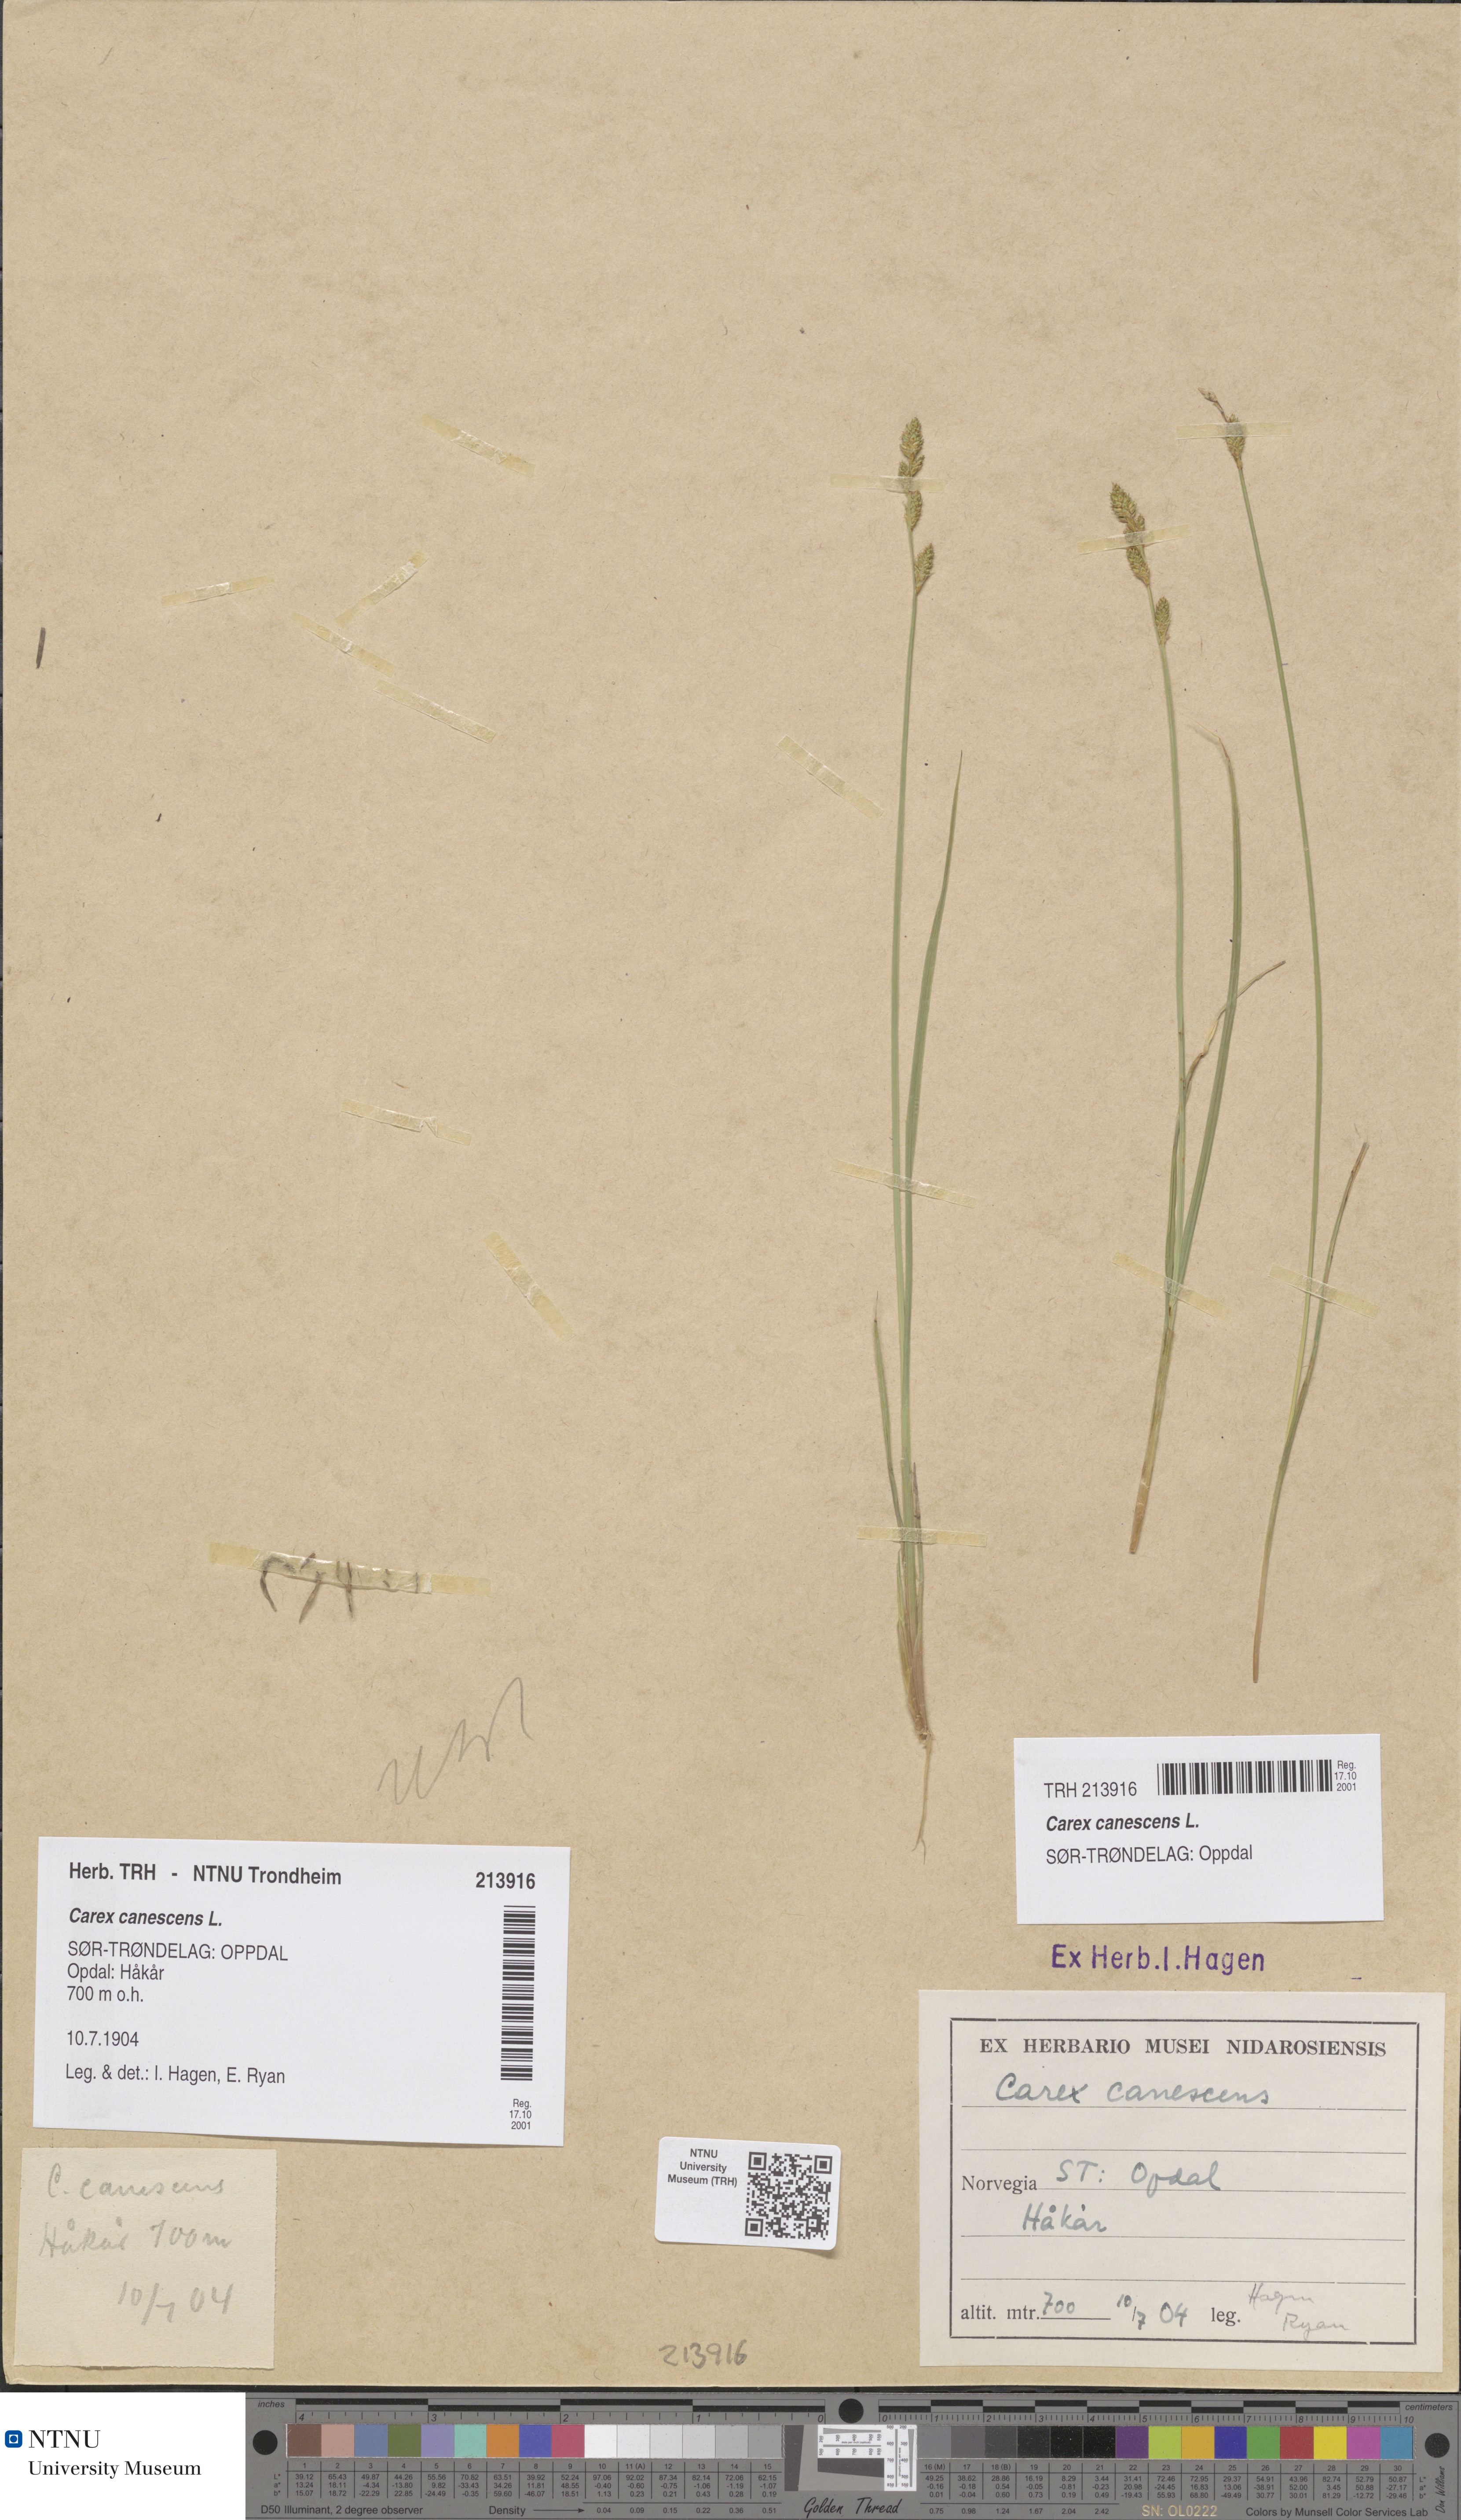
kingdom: Plantae
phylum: Tracheophyta
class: Liliopsida
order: Poales
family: Cyperaceae
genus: Carex
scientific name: Carex canescens
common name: White sedge
